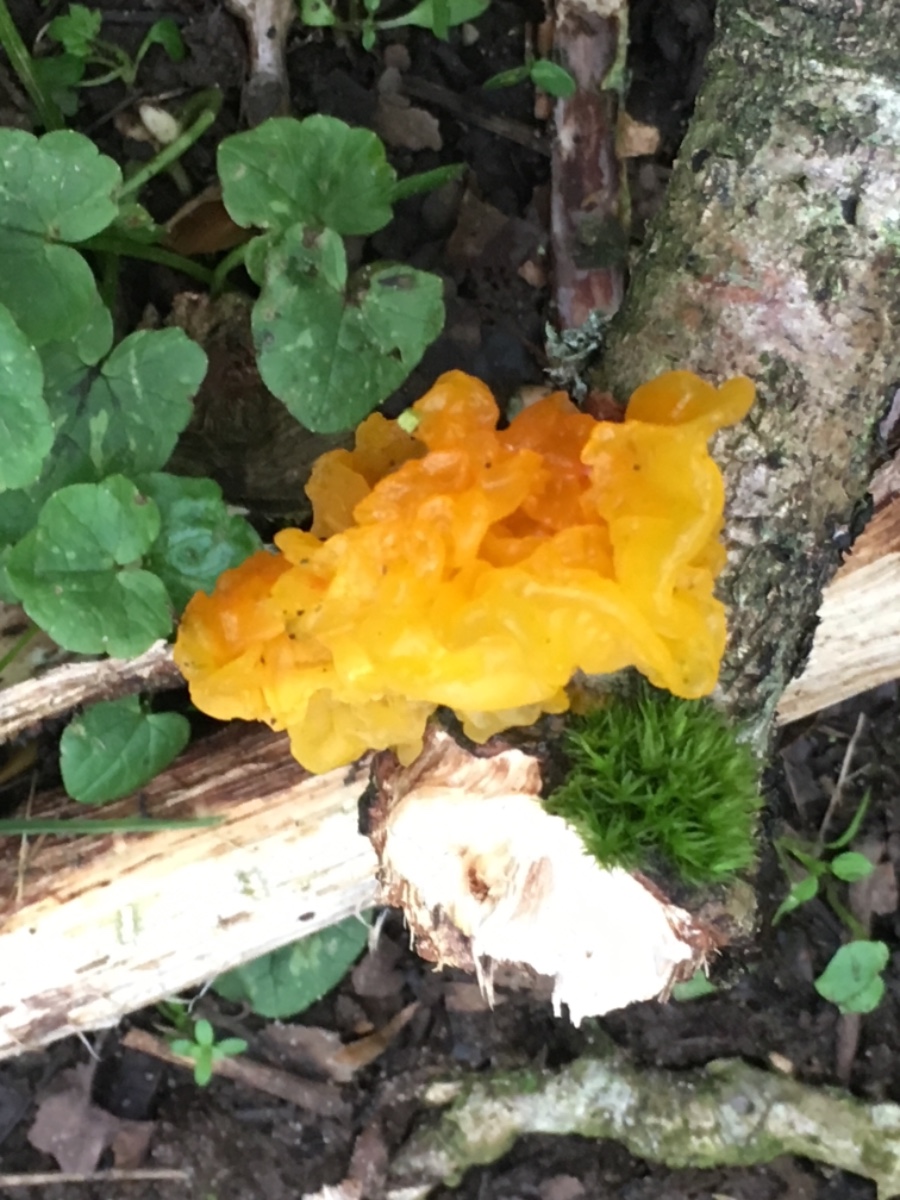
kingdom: Fungi
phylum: Basidiomycota
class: Tremellomycetes
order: Tremellales
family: Tremellaceae
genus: Tremella
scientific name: Tremella mesenterica
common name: gul bævresvamp
